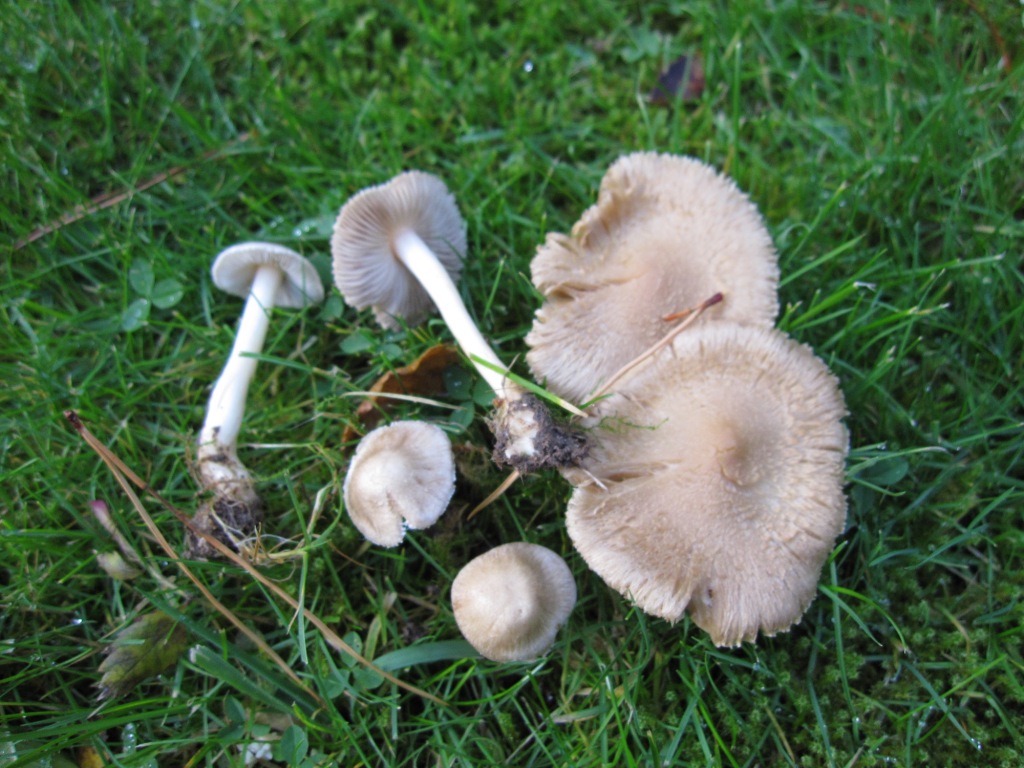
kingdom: Fungi
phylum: Basidiomycota
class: Agaricomycetes
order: Agaricales
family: Inocybaceae
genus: Inocybe
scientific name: Inocybe sindonia
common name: bleg trævlhat
